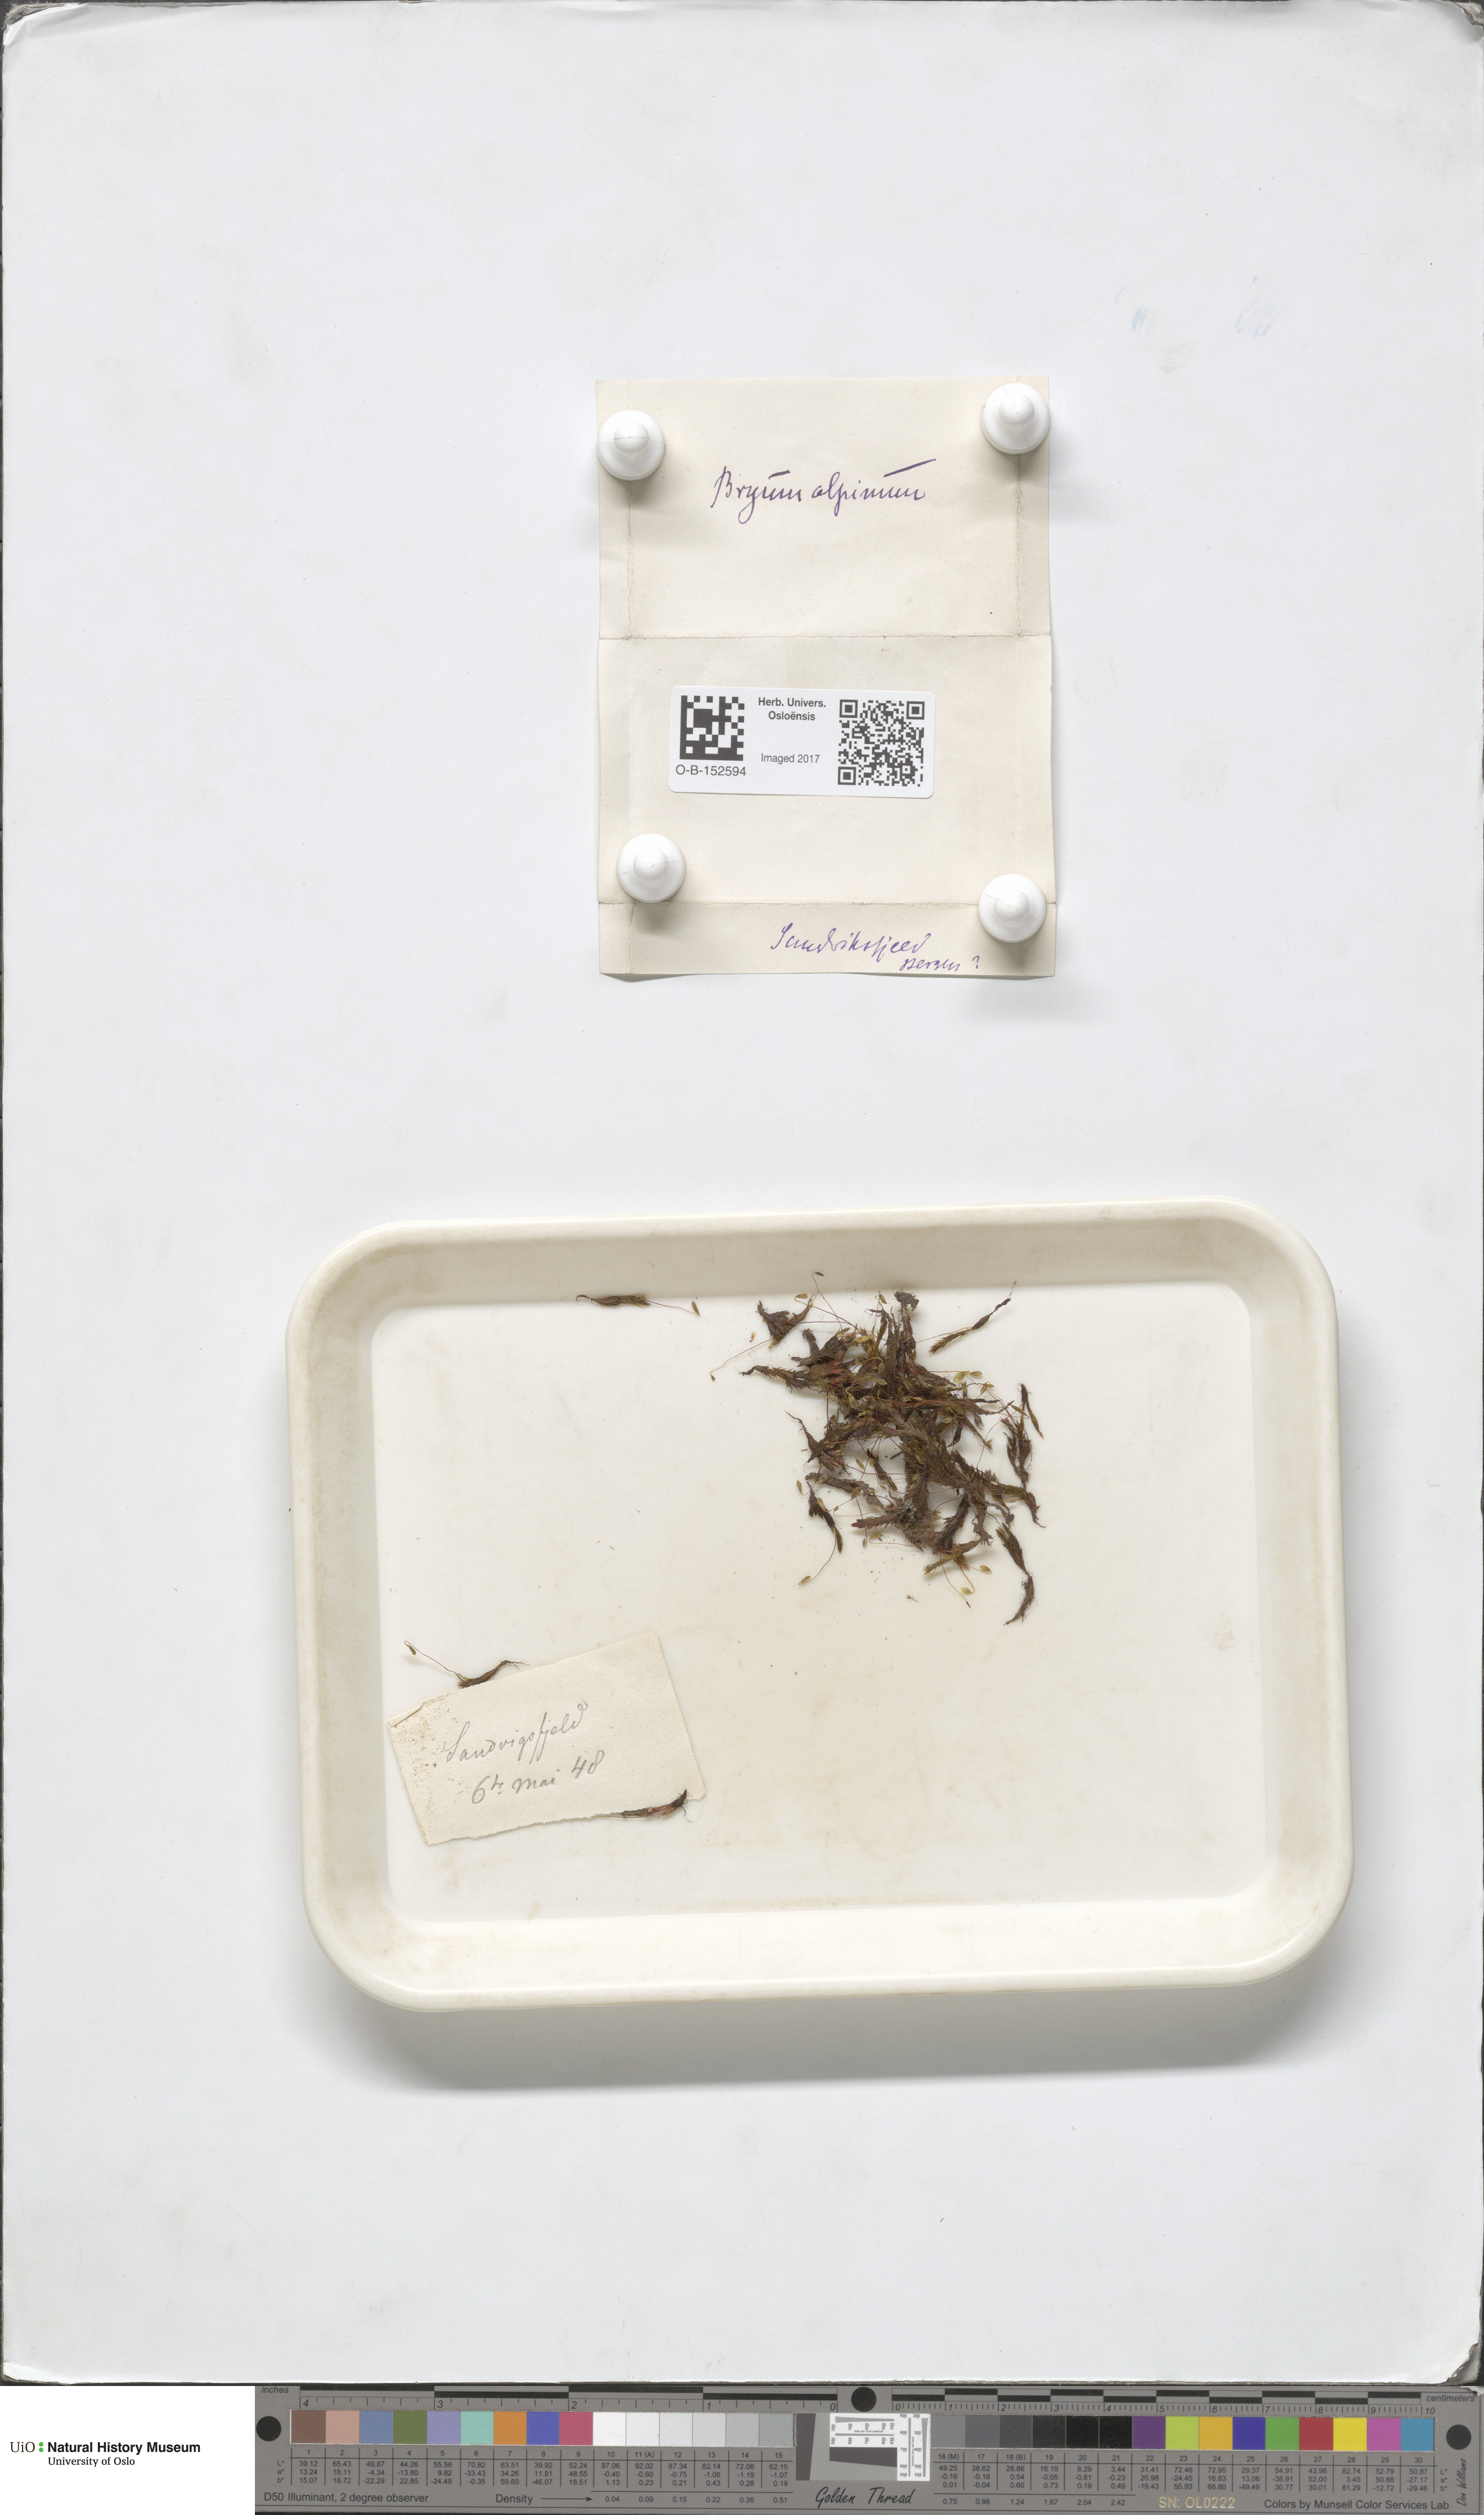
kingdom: Plantae
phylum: Bryophyta
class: Bryopsida
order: Bryales
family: Bryaceae
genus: Imbribryum
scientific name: Imbribryum alpinum
